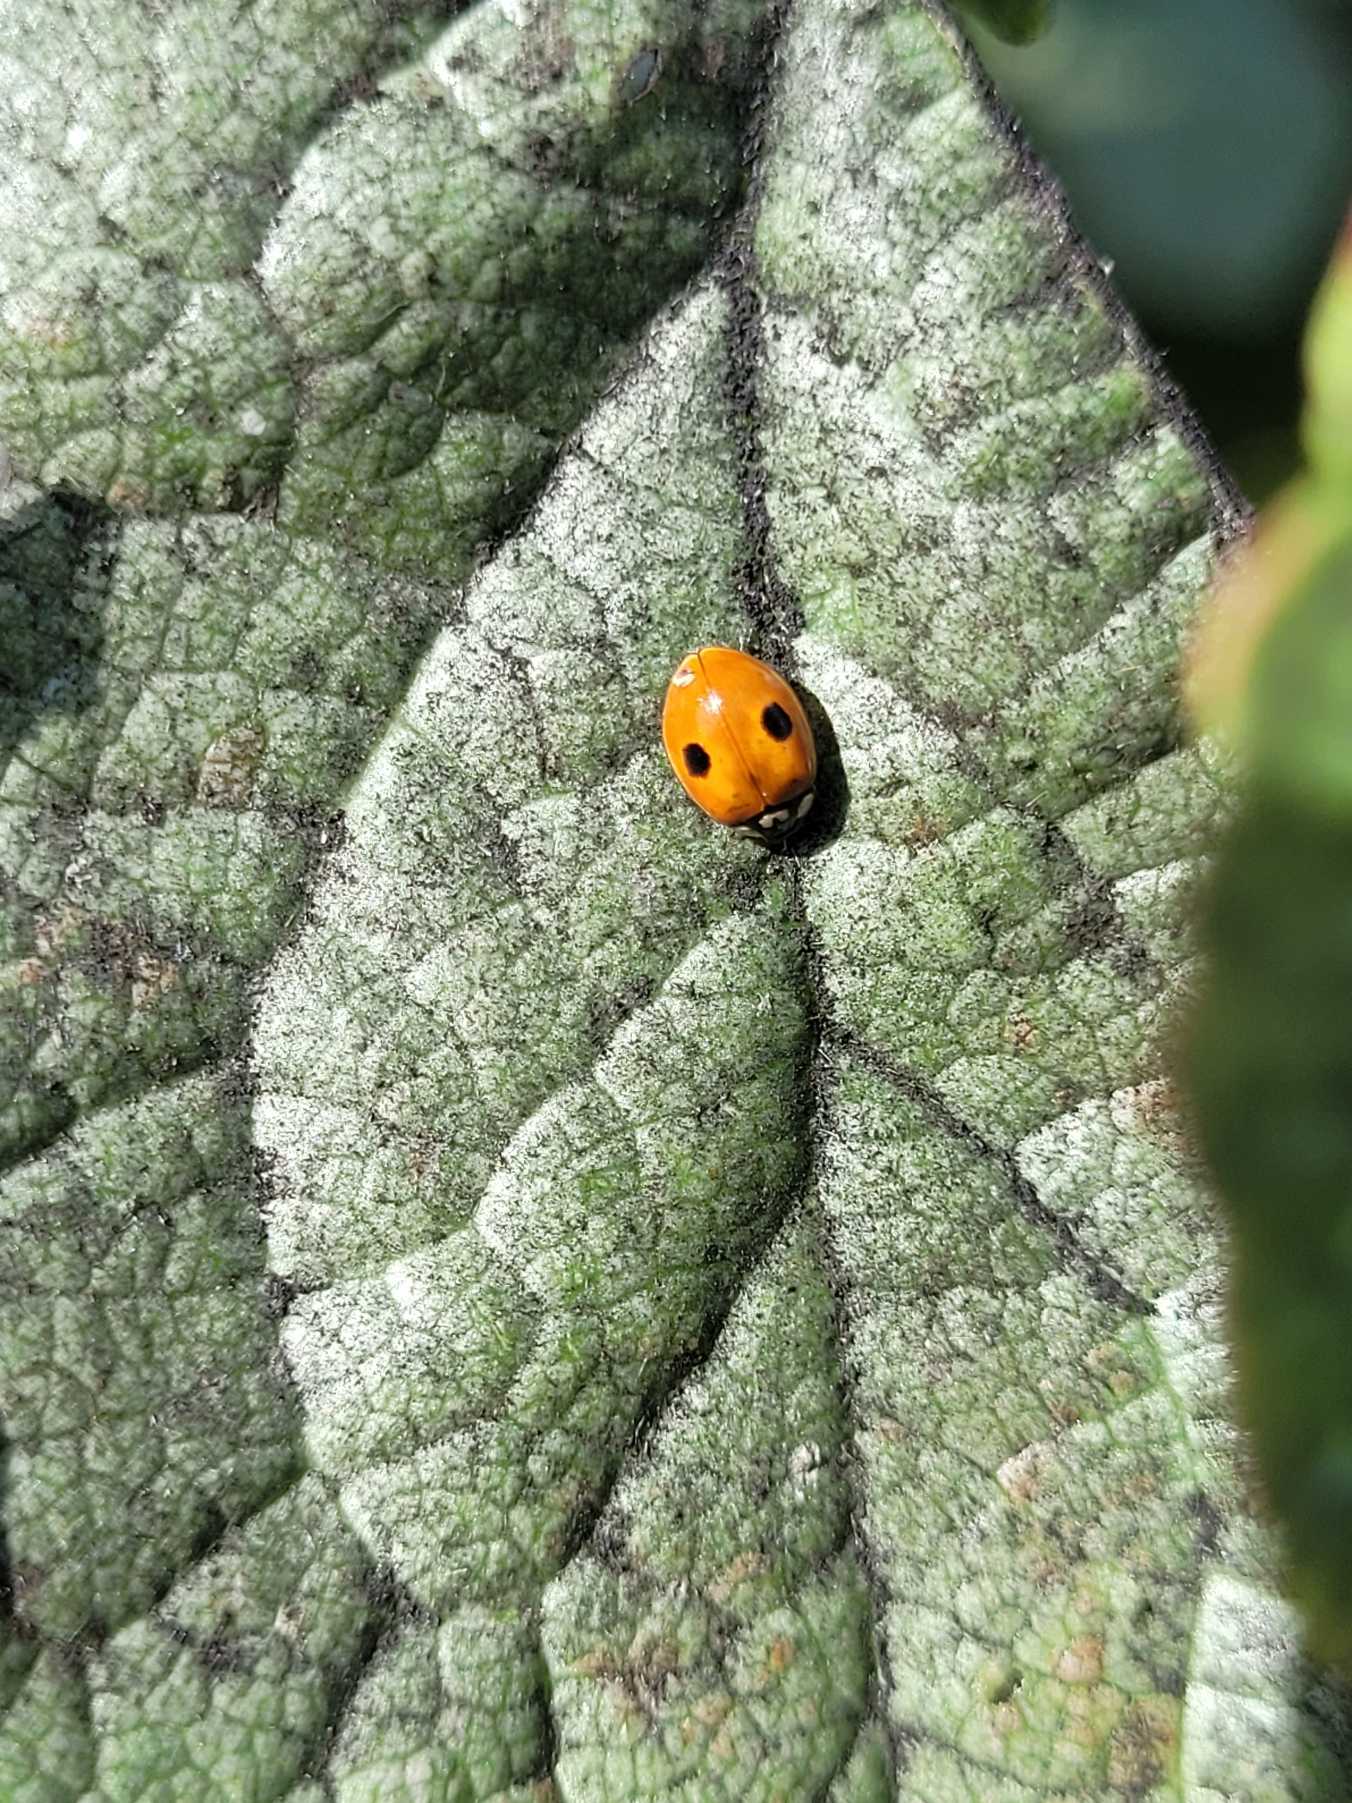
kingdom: Animalia
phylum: Arthropoda
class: Insecta
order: Coleoptera
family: Coccinellidae
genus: Adalia
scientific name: Adalia bipunctata
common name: Toplettet mariehøne
